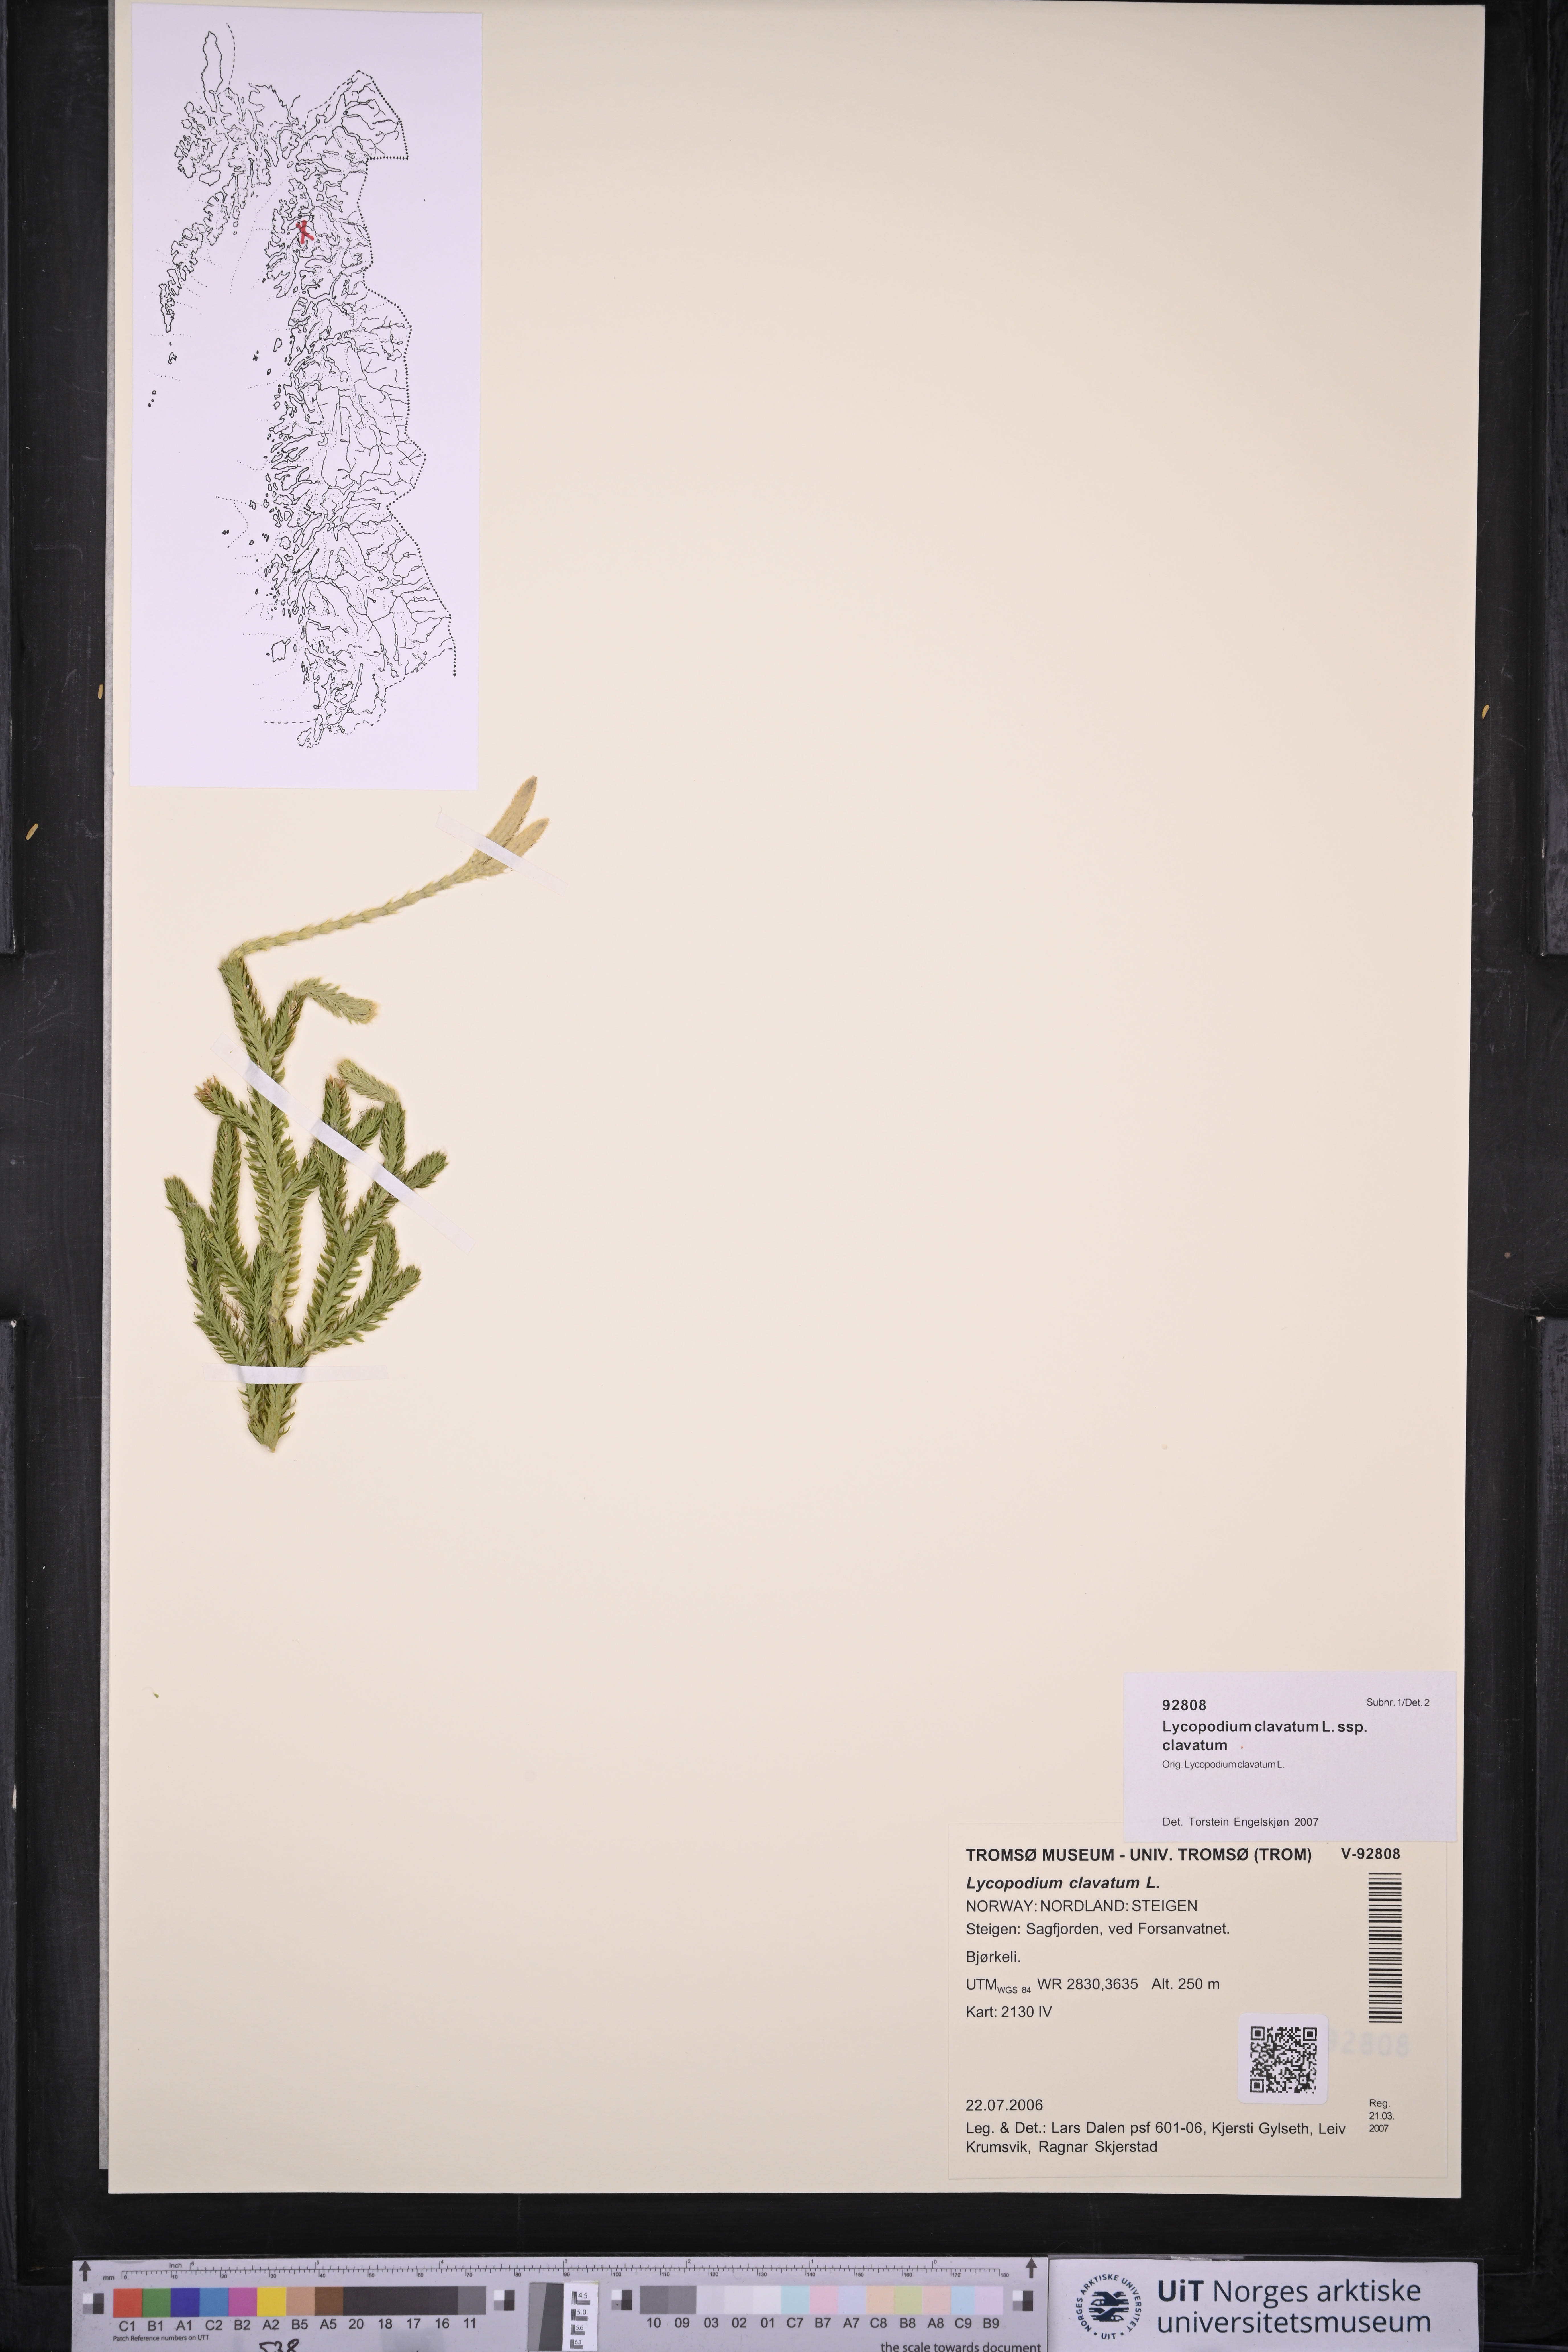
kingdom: Plantae
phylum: Tracheophyta
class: Lycopodiopsida
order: Lycopodiales
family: Lycopodiaceae
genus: Lycopodium
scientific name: Lycopodium clavatum
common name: Stag's-horn clubmoss
